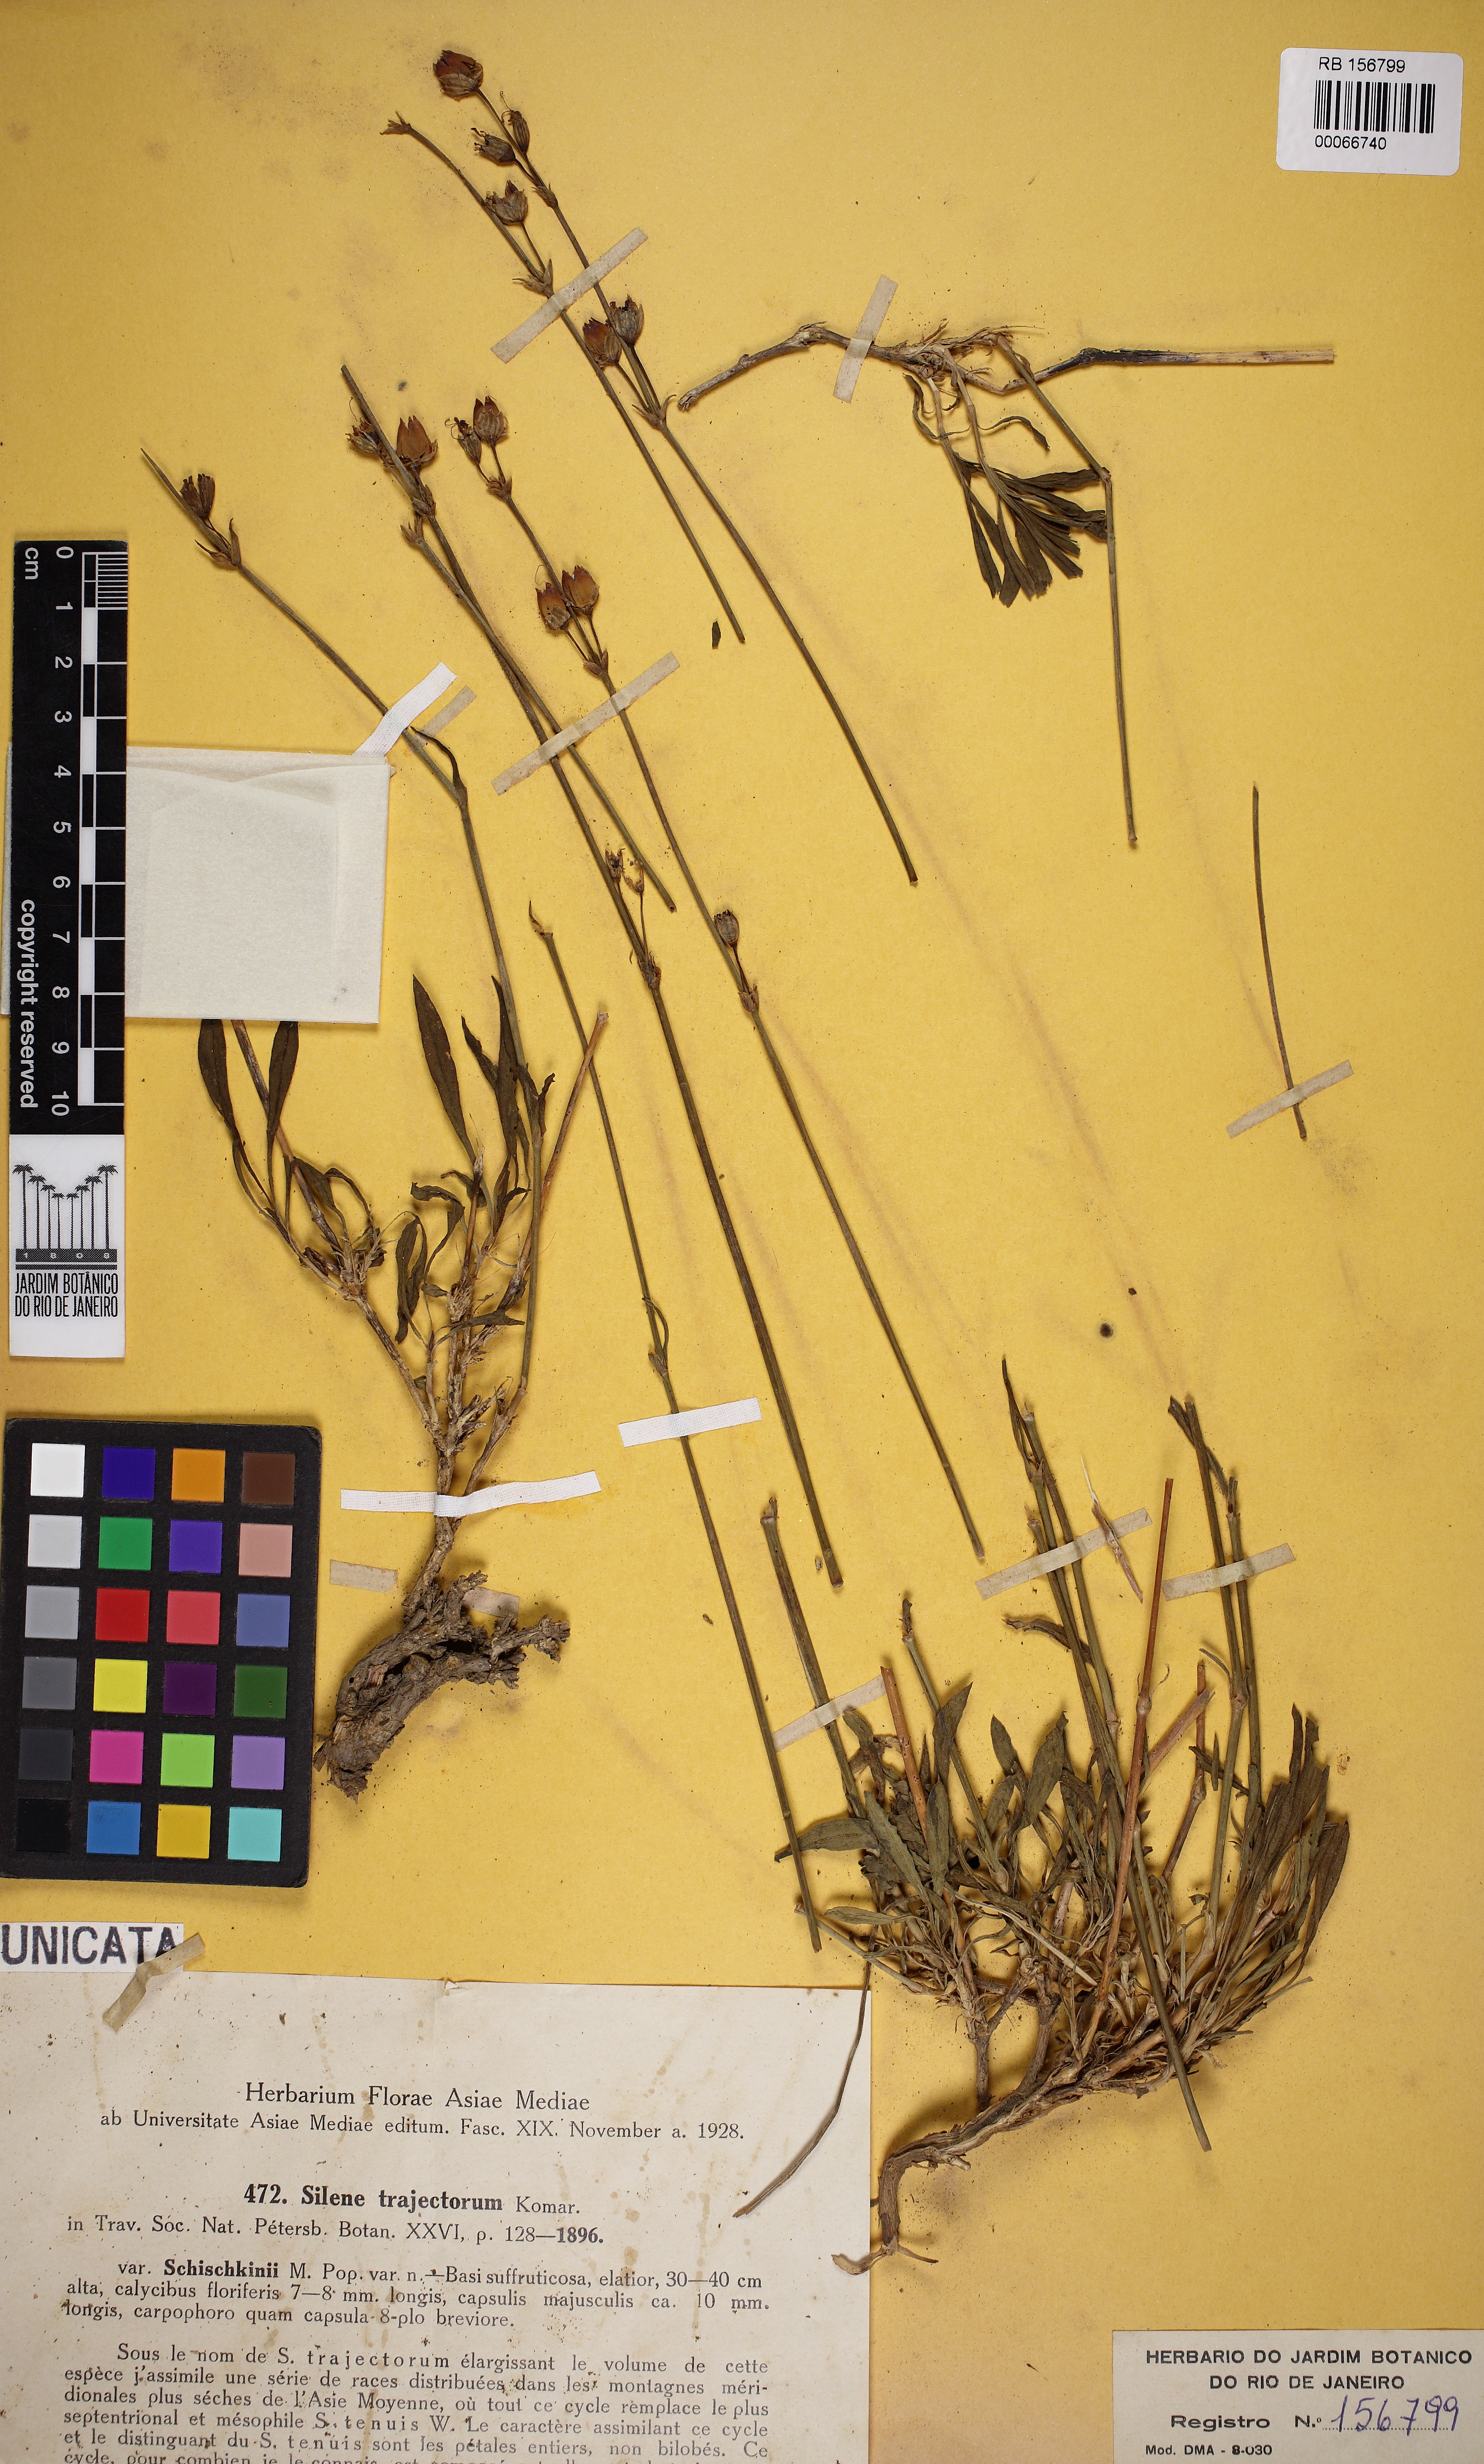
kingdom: Plantae
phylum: Tracheophyta
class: Magnoliopsida
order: Caryophyllales
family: Caryophyllaceae
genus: Silene
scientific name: Silene trajectorum
